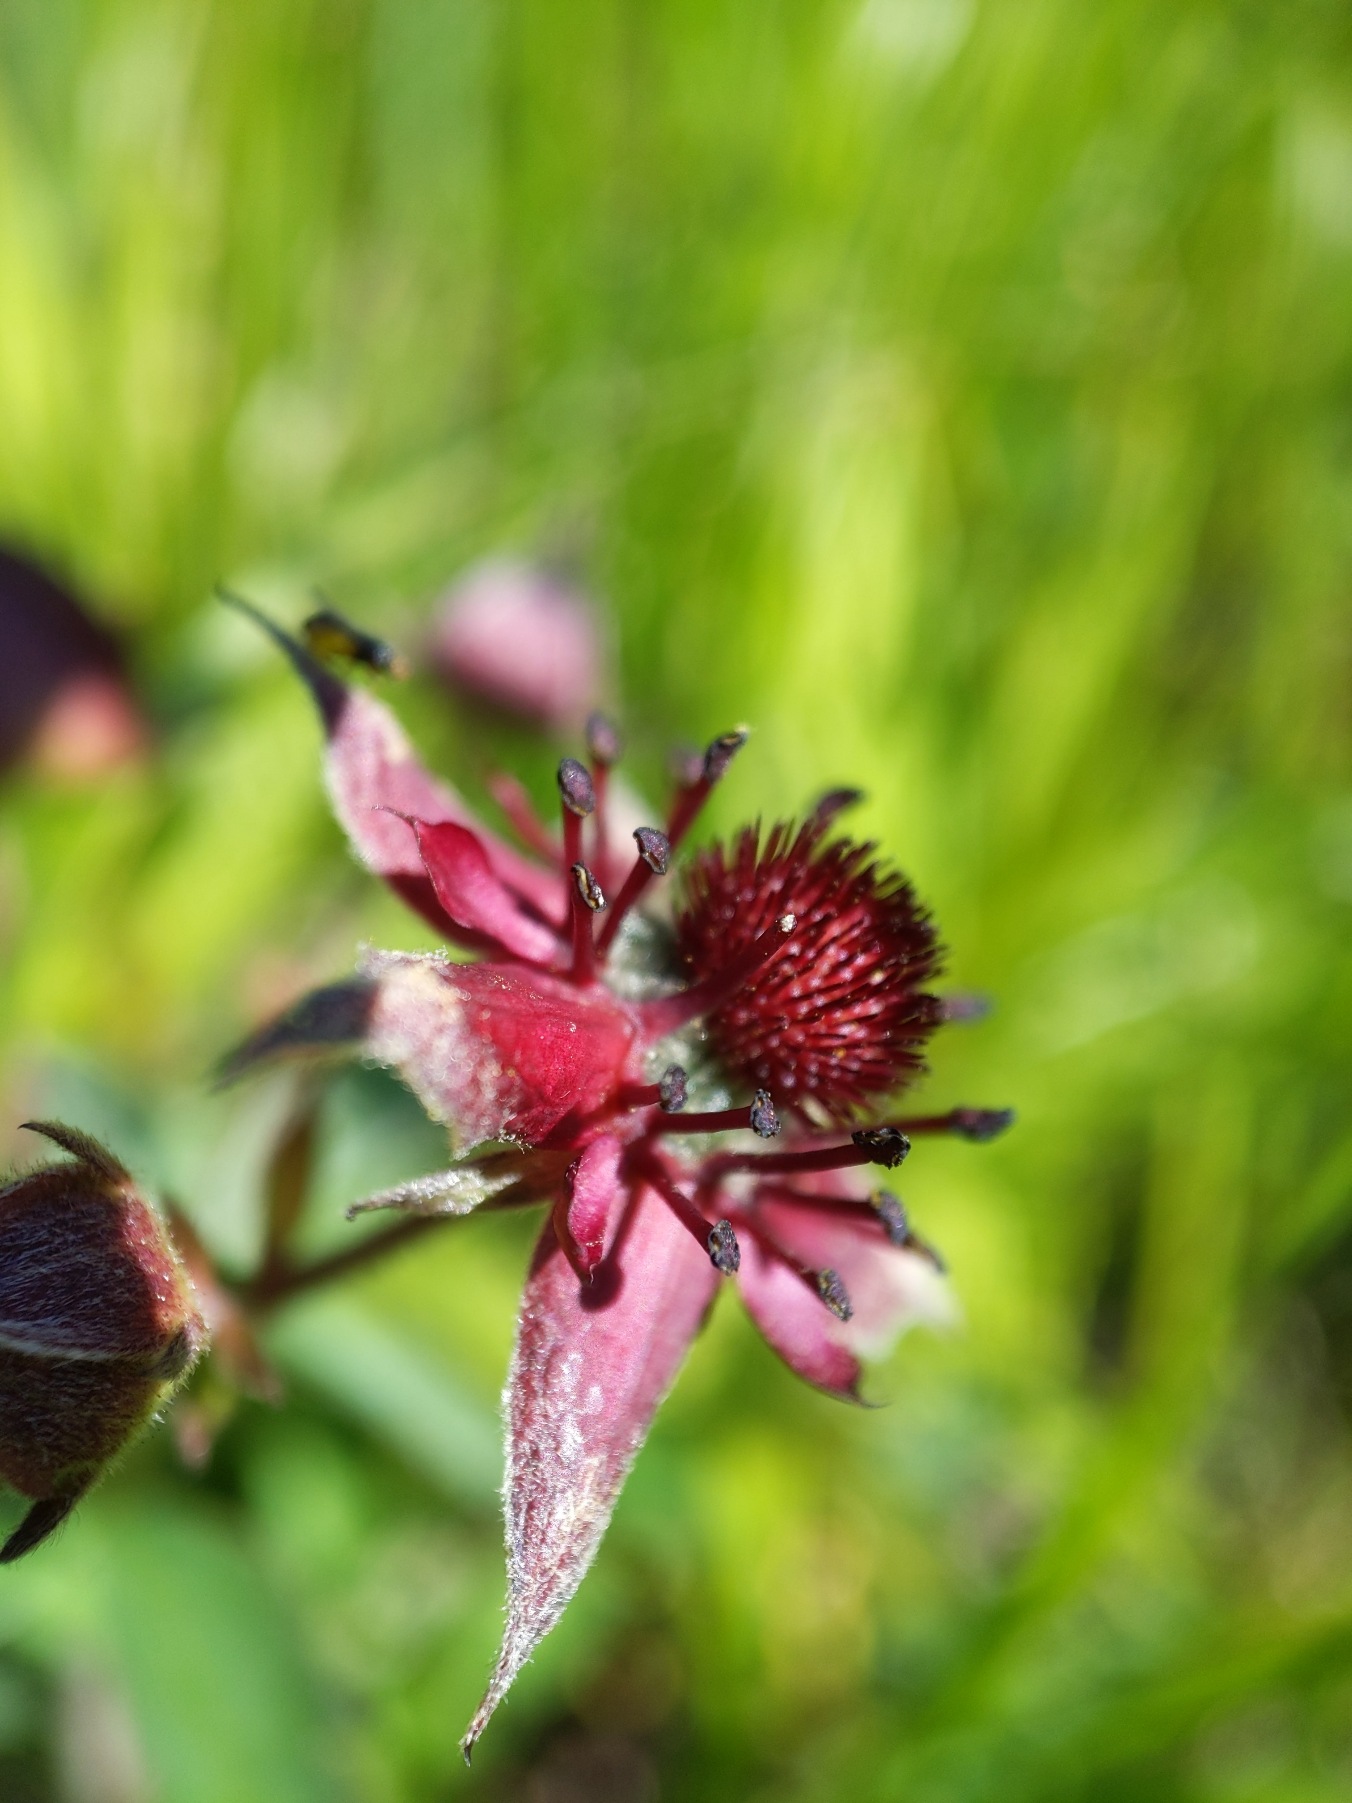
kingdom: Plantae
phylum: Tracheophyta
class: Magnoliopsida
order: Rosales
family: Rosaceae
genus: Comarum
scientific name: Comarum palustre
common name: Kragefod
